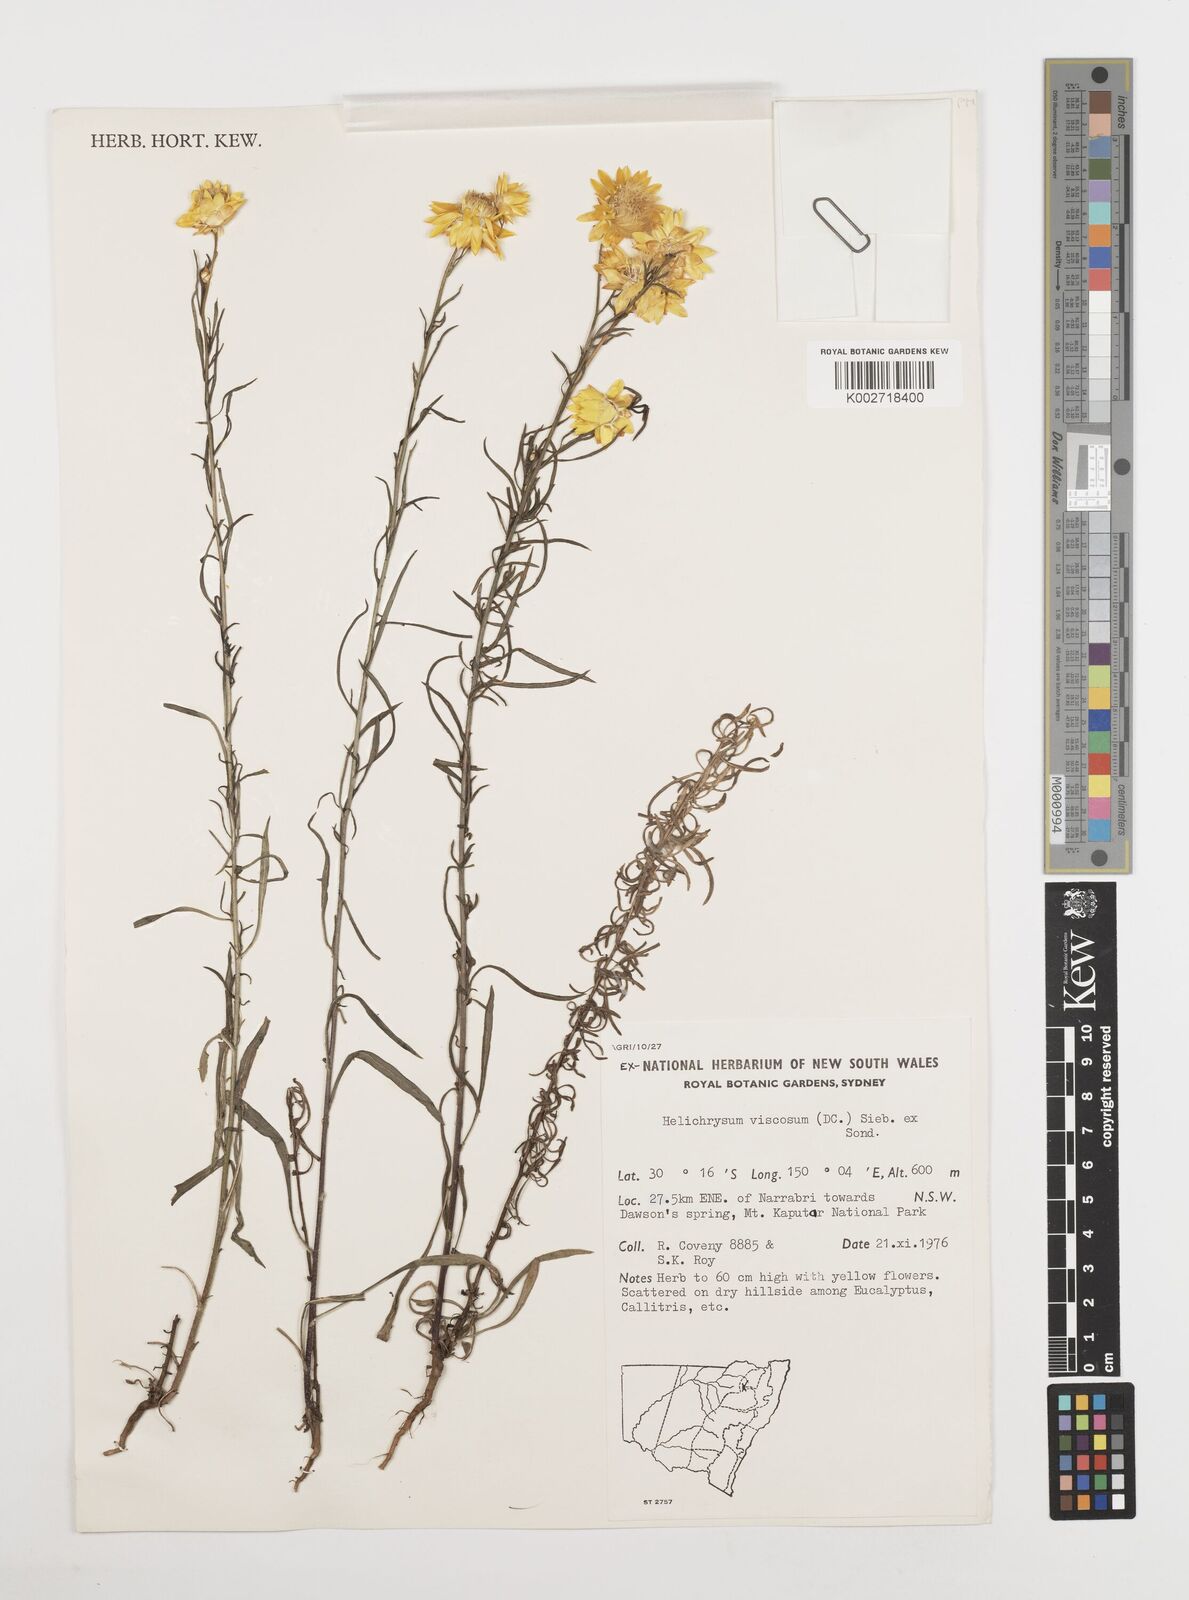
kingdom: Plantae
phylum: Tracheophyta
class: Magnoliopsida
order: Asterales
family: Asteraceae
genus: Xerochrysum
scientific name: Xerochrysum viscosum
